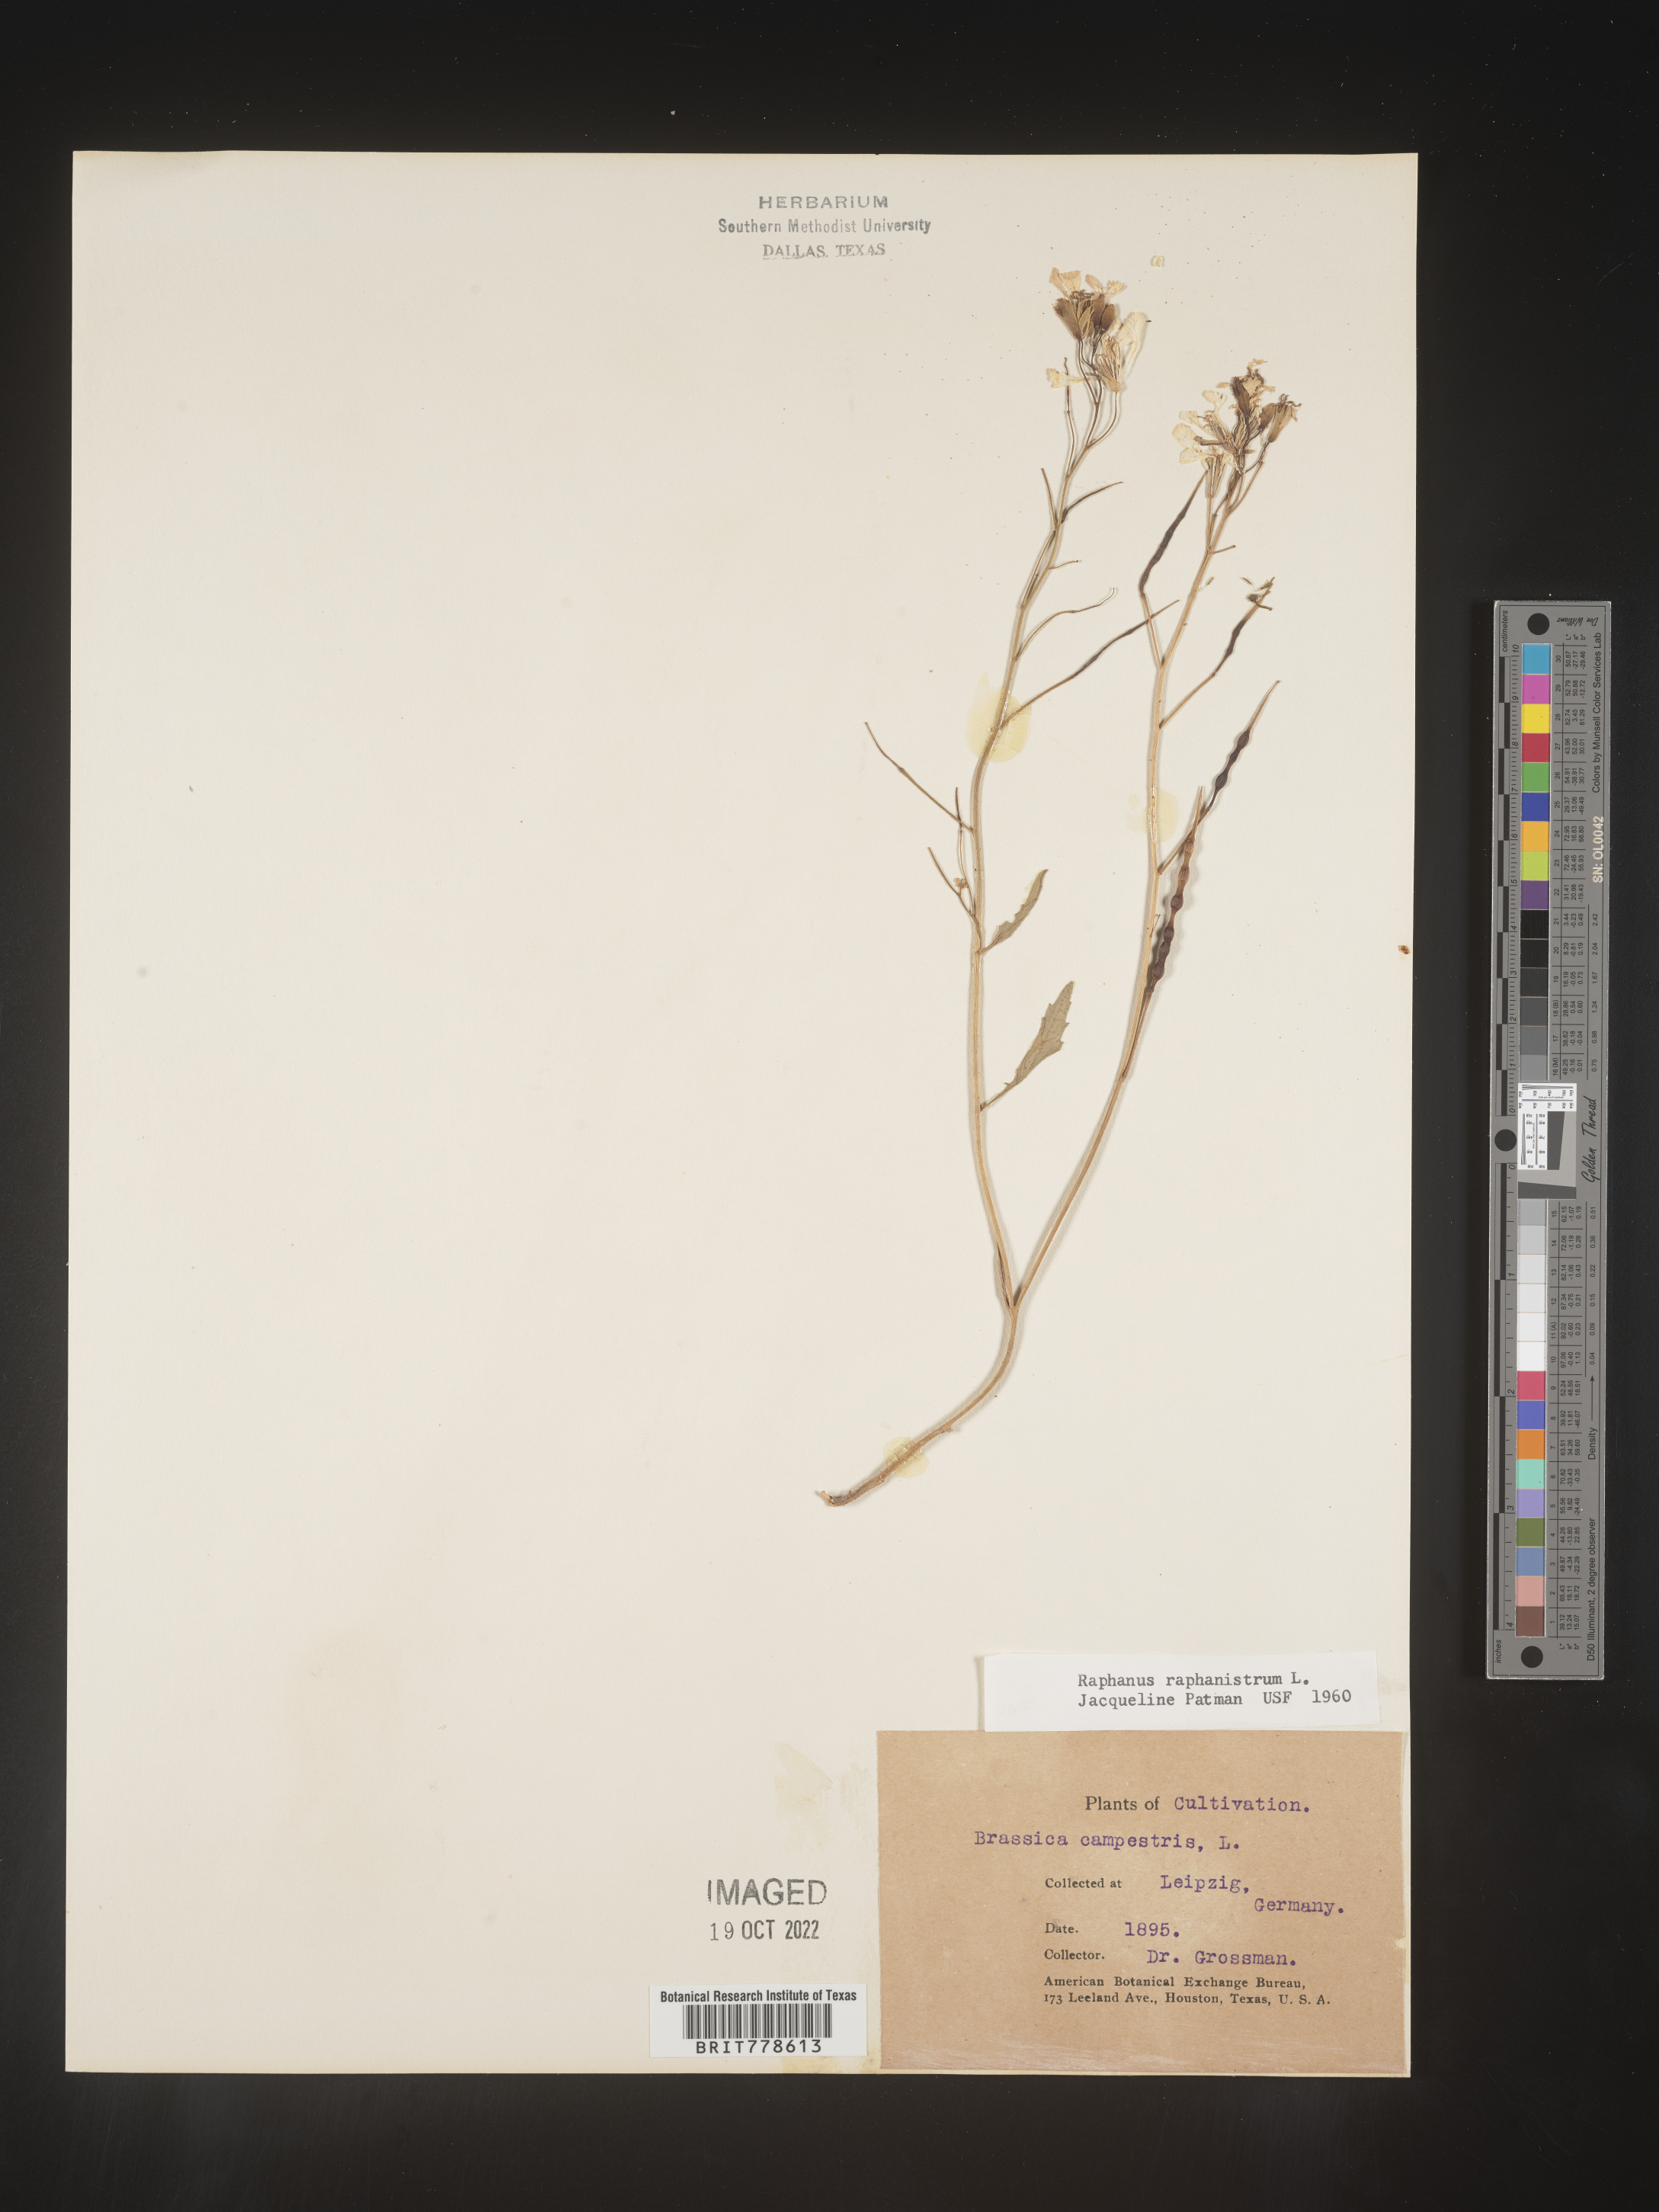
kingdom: Plantae
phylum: Tracheophyta
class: Magnoliopsida
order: Brassicales
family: Brassicaceae
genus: Raphanus
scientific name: Raphanus
